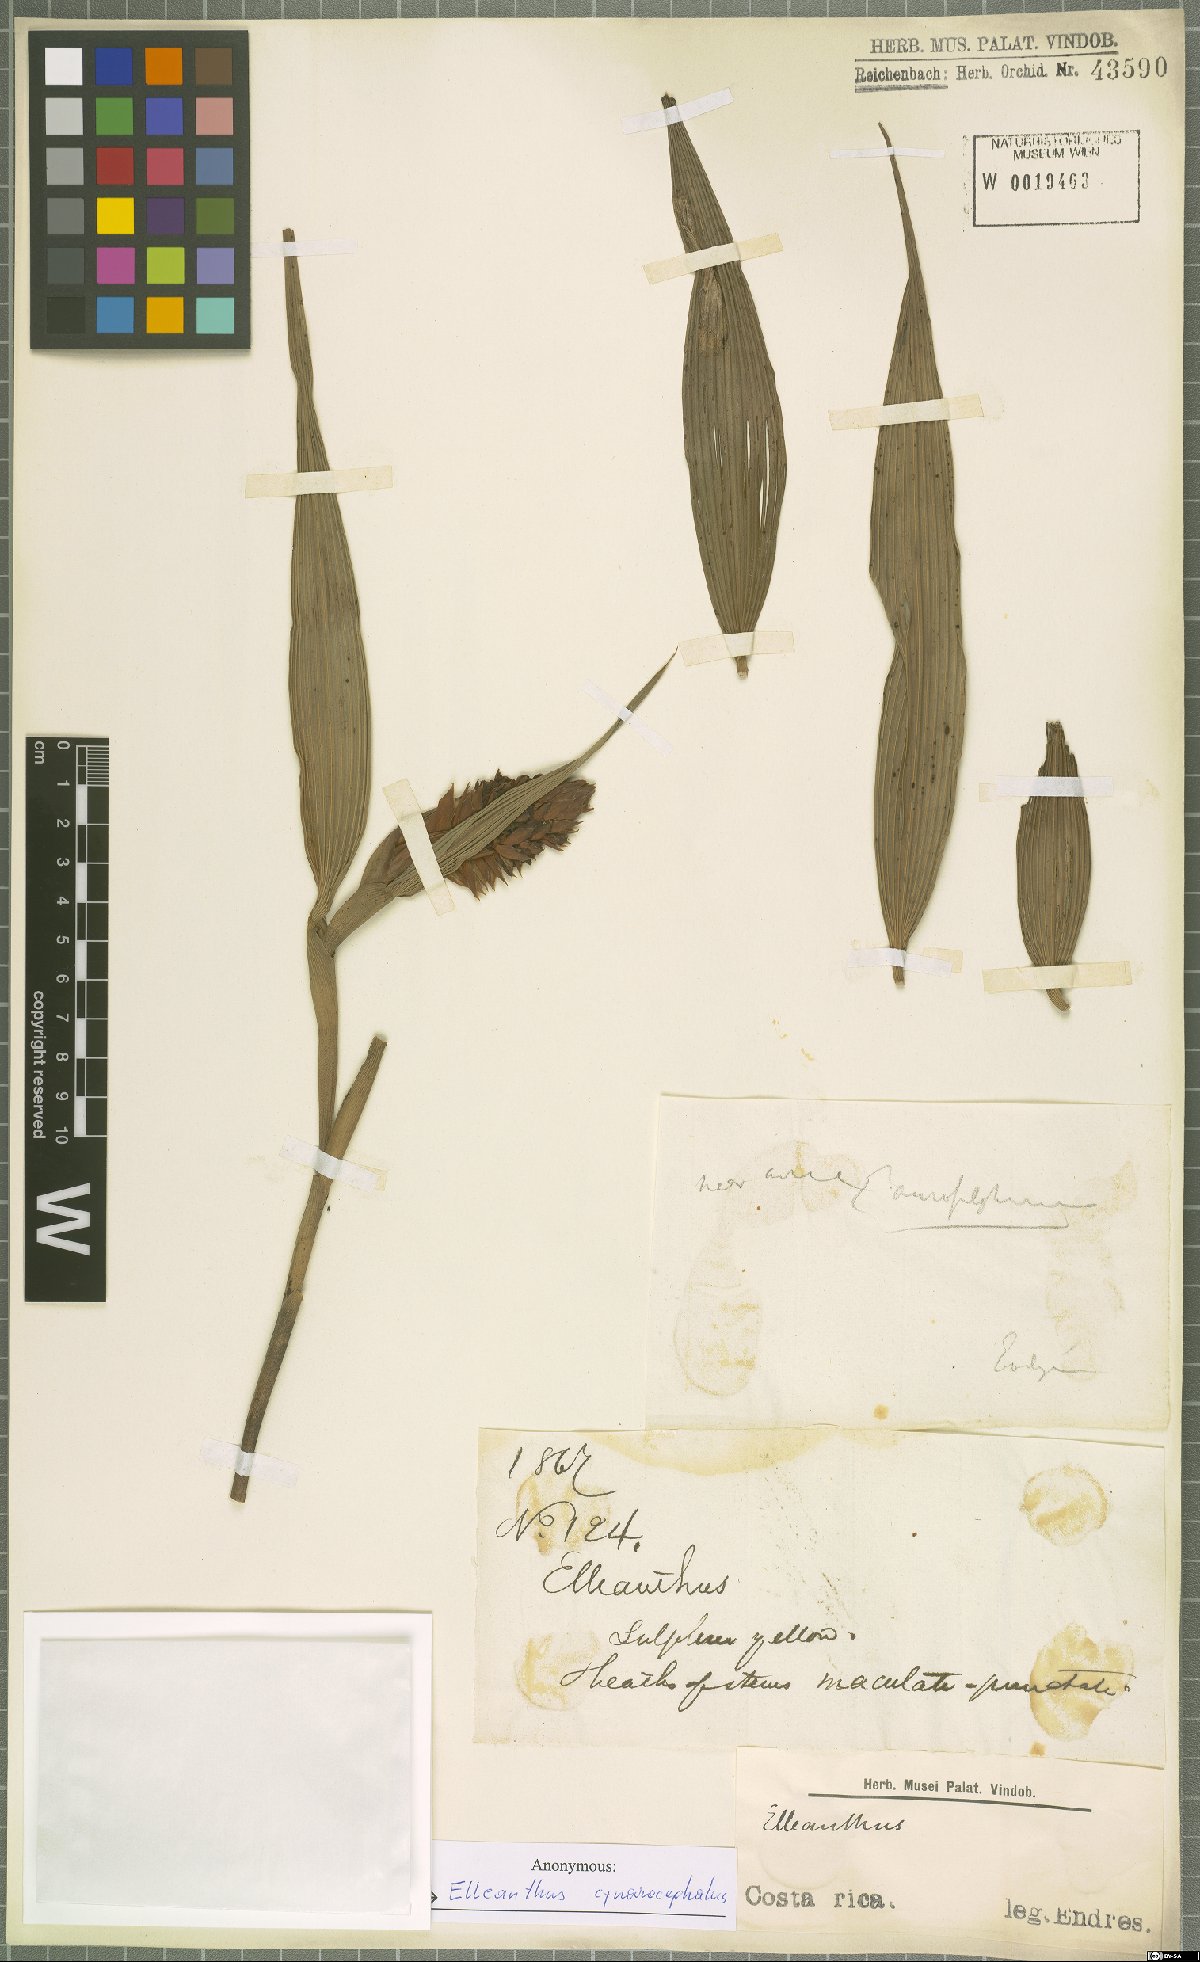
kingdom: Plantae
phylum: Tracheophyta
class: Liliopsida
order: Asparagales
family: Orchidaceae
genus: Elleanthus
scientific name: Elleanthus capitatus
